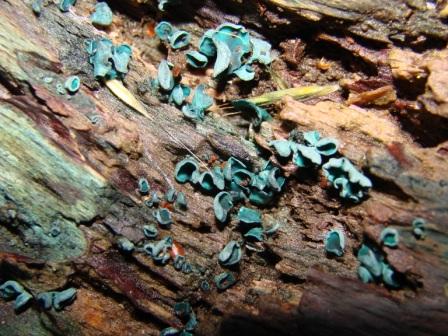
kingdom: Fungi
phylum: Ascomycota
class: Leotiomycetes
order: Helotiales
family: Chlorociboriaceae
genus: Chlorociboria
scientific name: Chlorociboria aeruginascens
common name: almindelig grønskive
